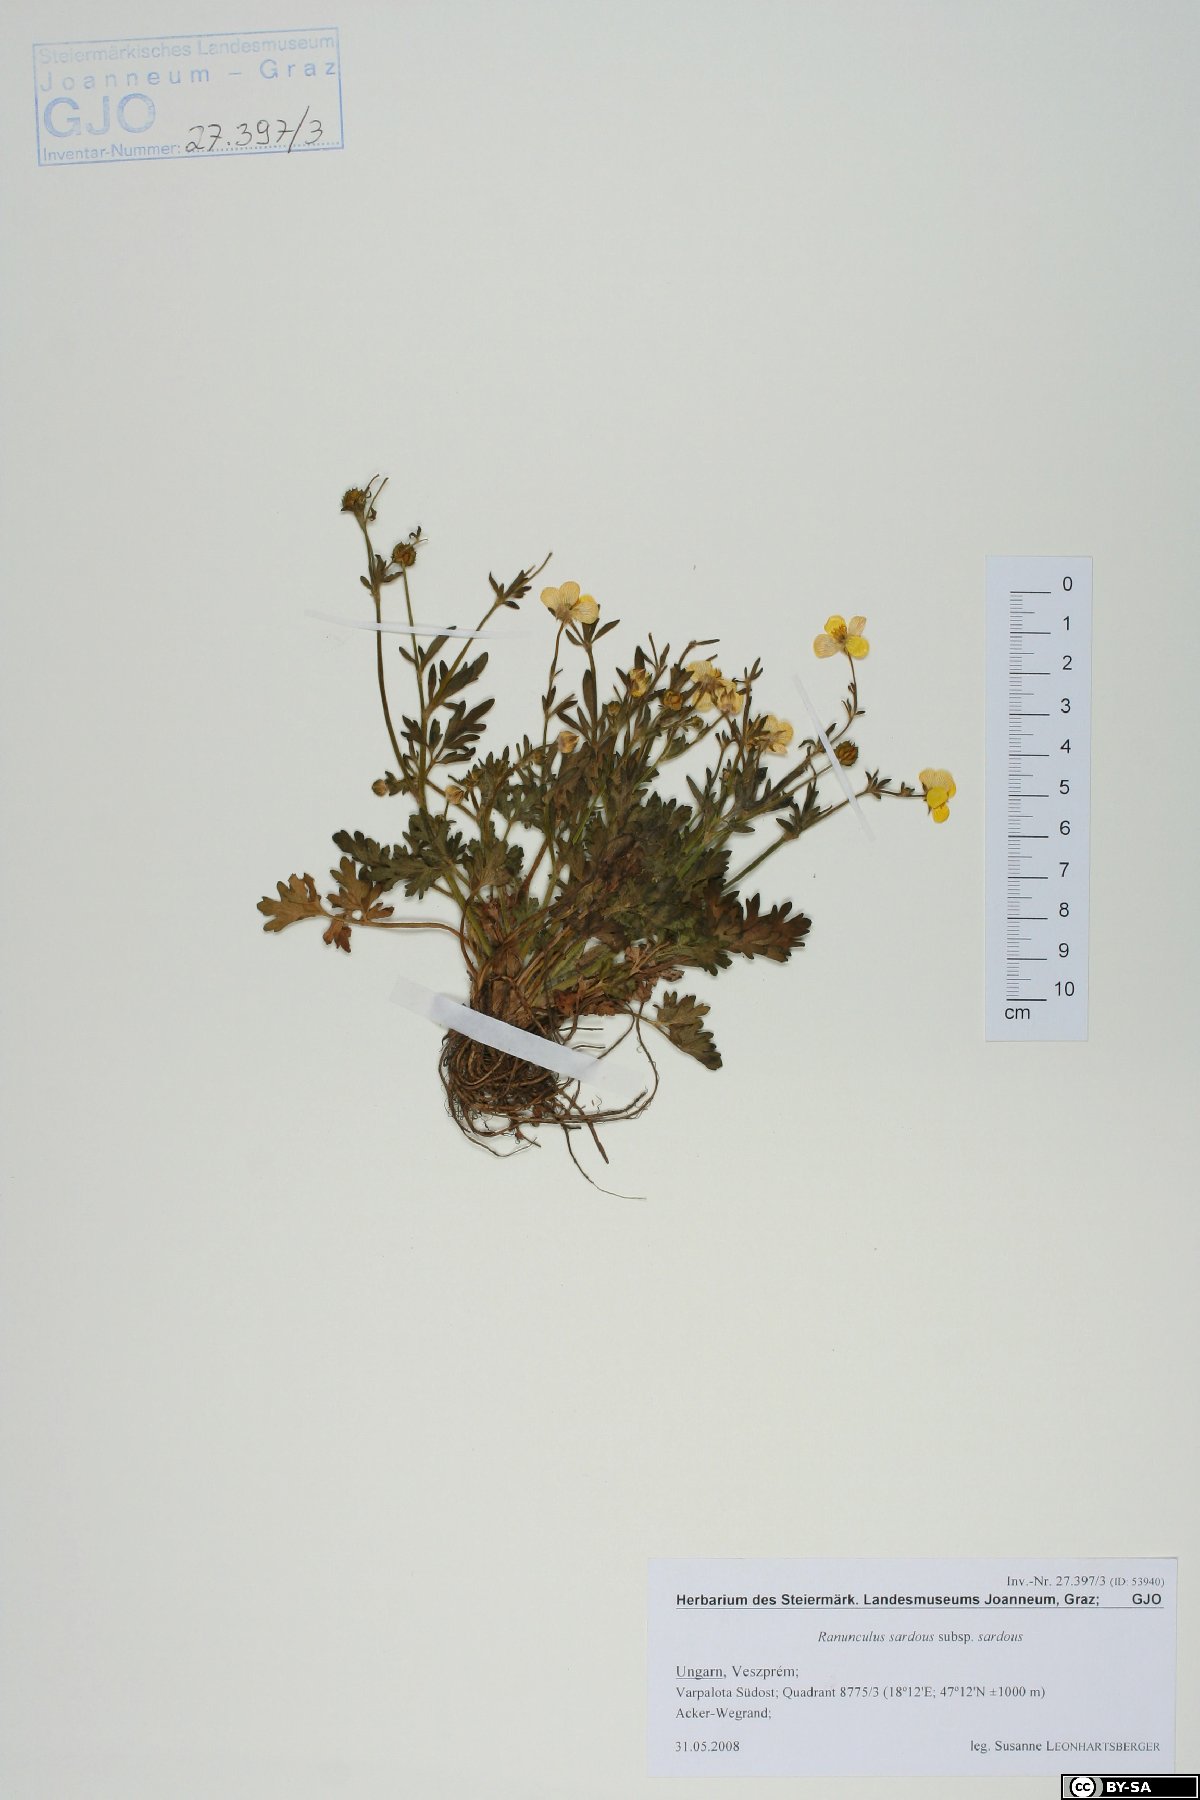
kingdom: Plantae
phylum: Tracheophyta
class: Magnoliopsida
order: Ranunculales
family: Ranunculaceae
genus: Ranunculus
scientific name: Ranunculus sardous
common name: Hairy buttercup
